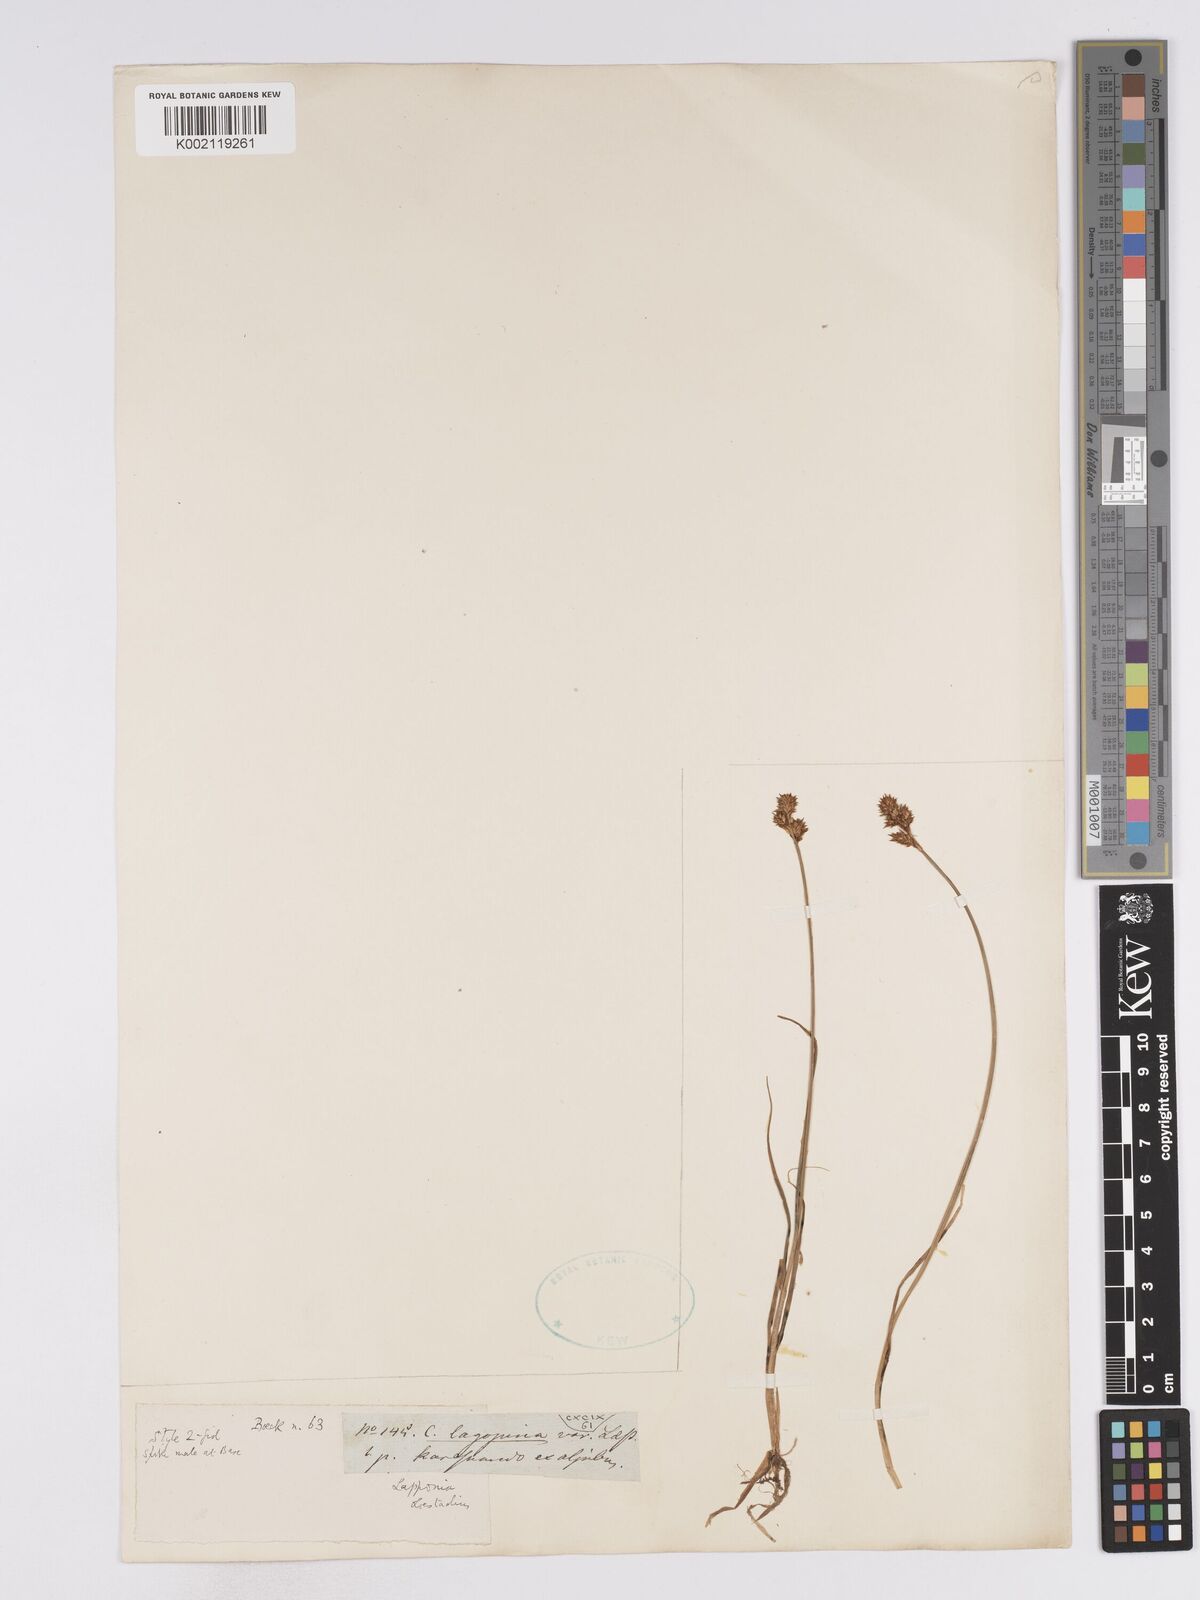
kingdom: Plantae
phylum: Tracheophyta
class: Liliopsida
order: Poales
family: Cyperaceae
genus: Carex
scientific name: Carex lachenalii
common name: Hare's-foot sedge
